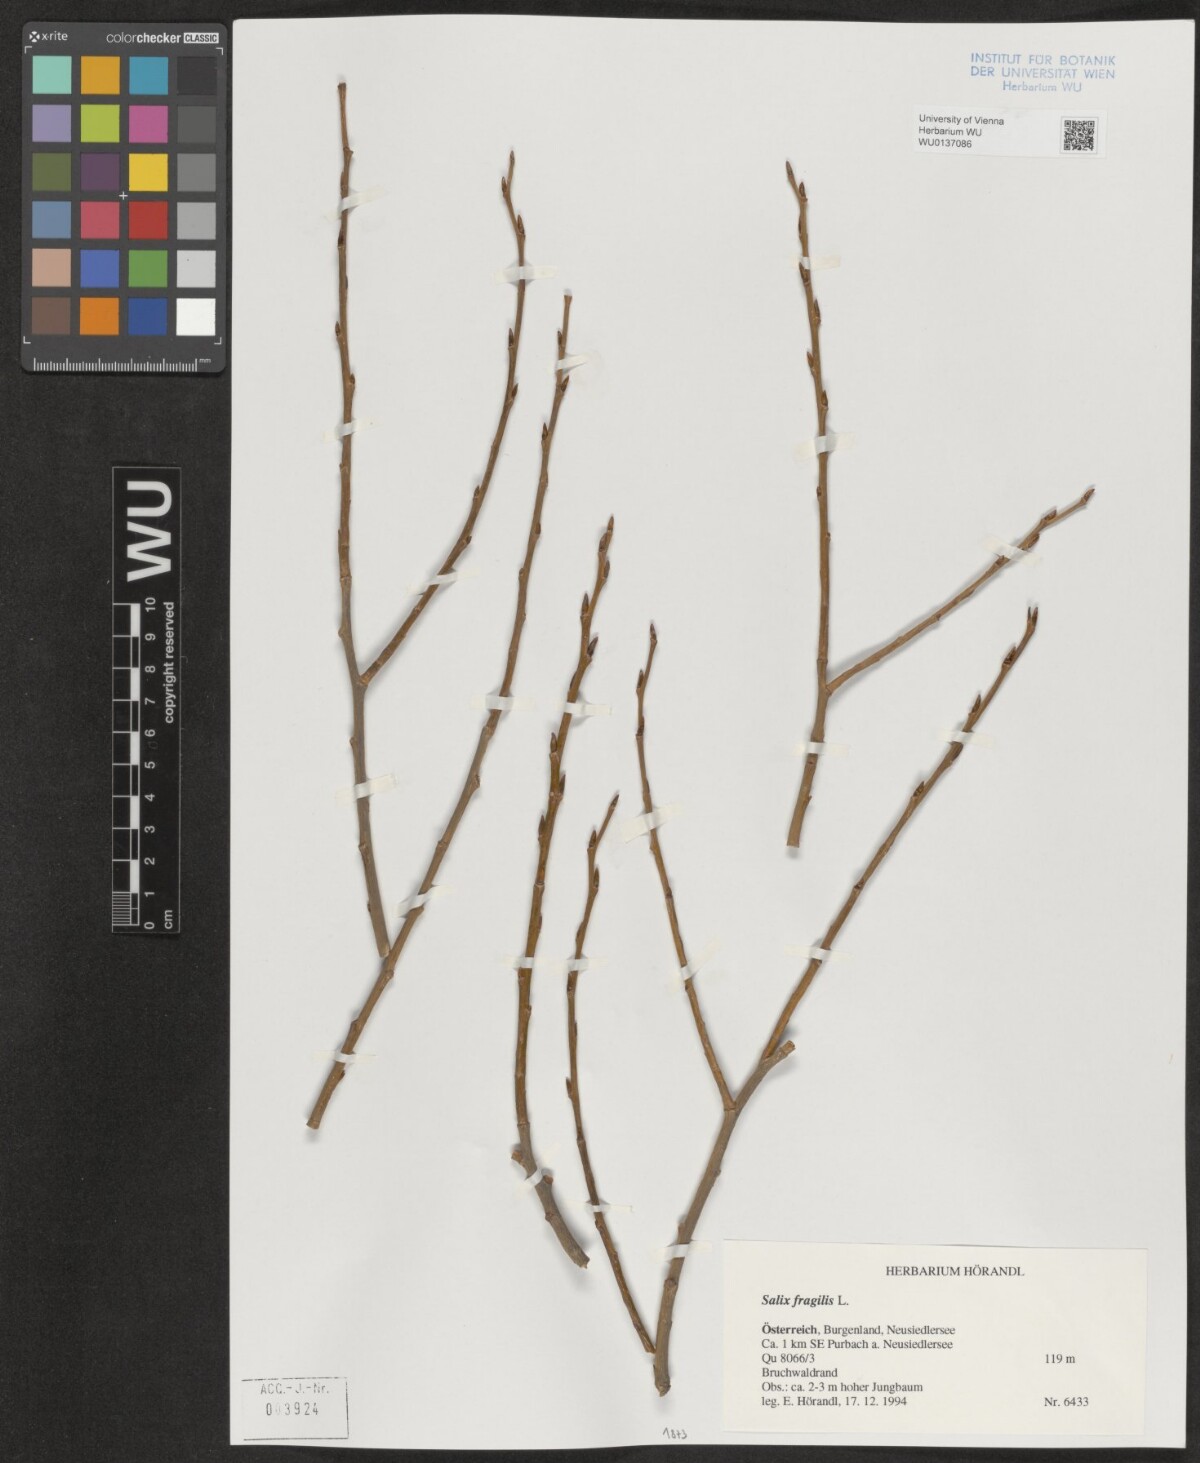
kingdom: Plantae
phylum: Tracheophyta
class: Magnoliopsida
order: Malpighiales
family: Salicaceae
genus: Salix
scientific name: Salix fragilis
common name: Crack willow
